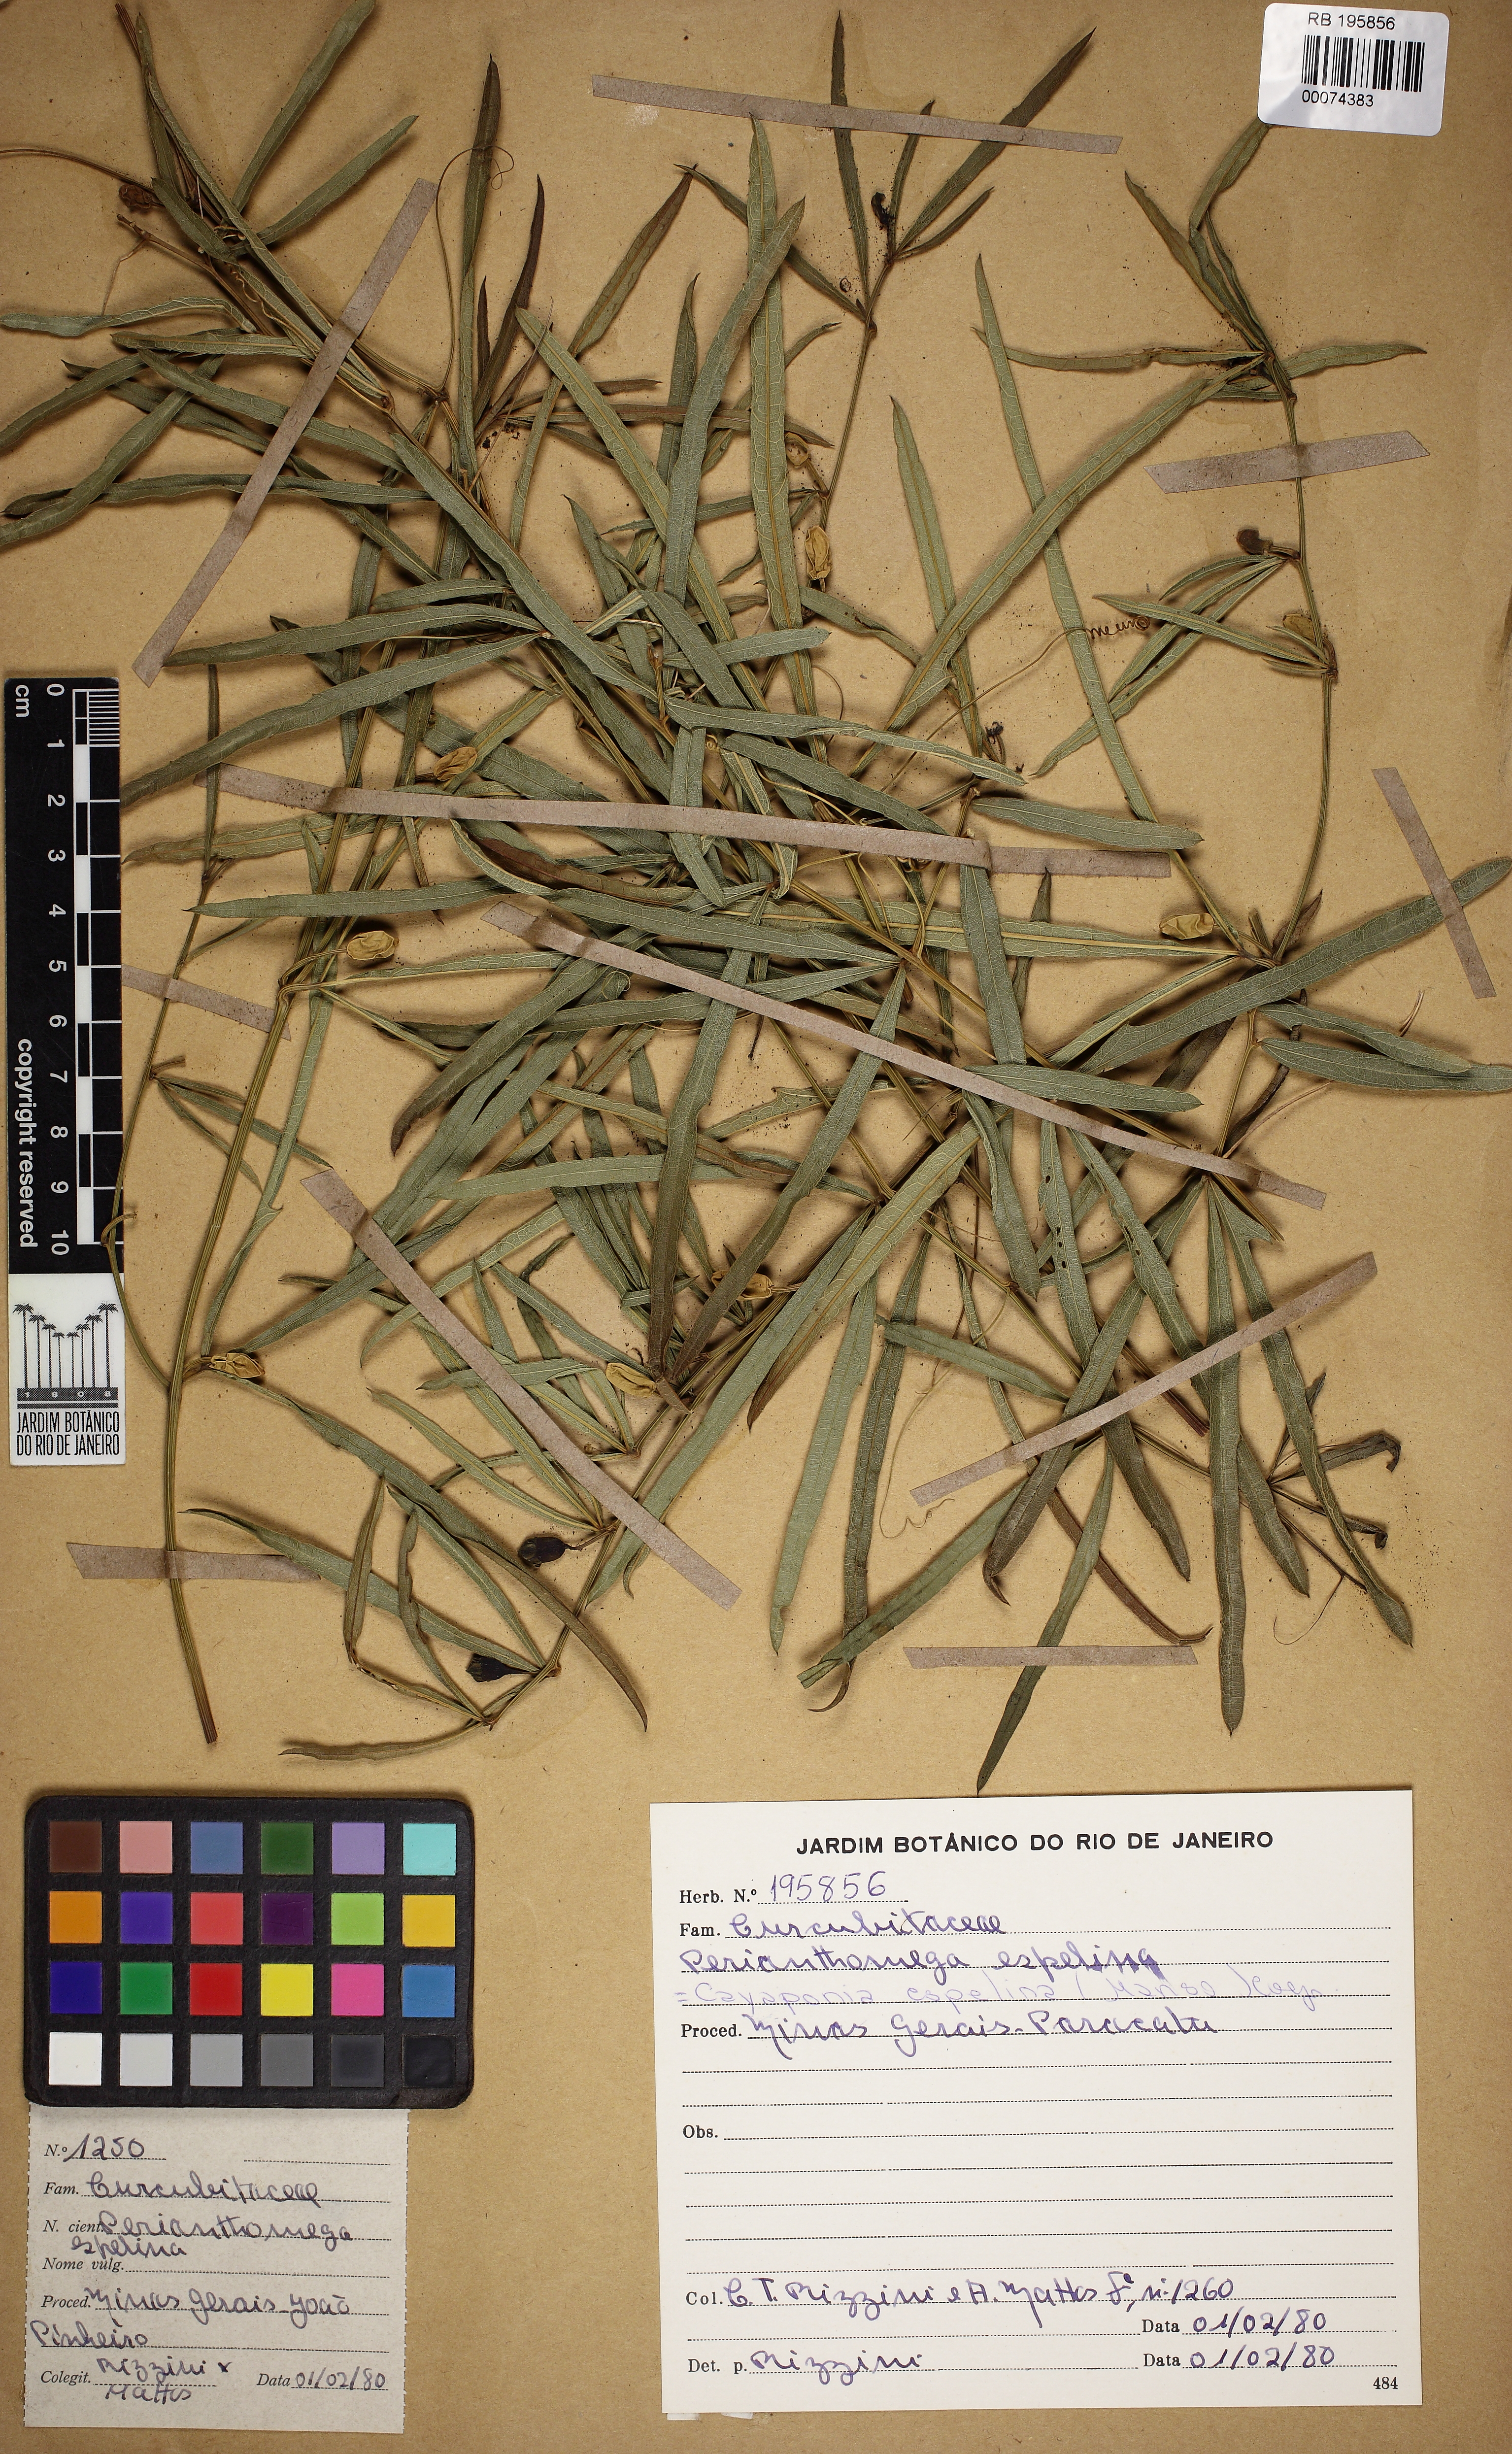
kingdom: Plantae
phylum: Tracheophyta
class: Magnoliopsida
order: Cucurbitales
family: Cucurbitaceae
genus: Cayaponia
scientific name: Cayaponia espelina
